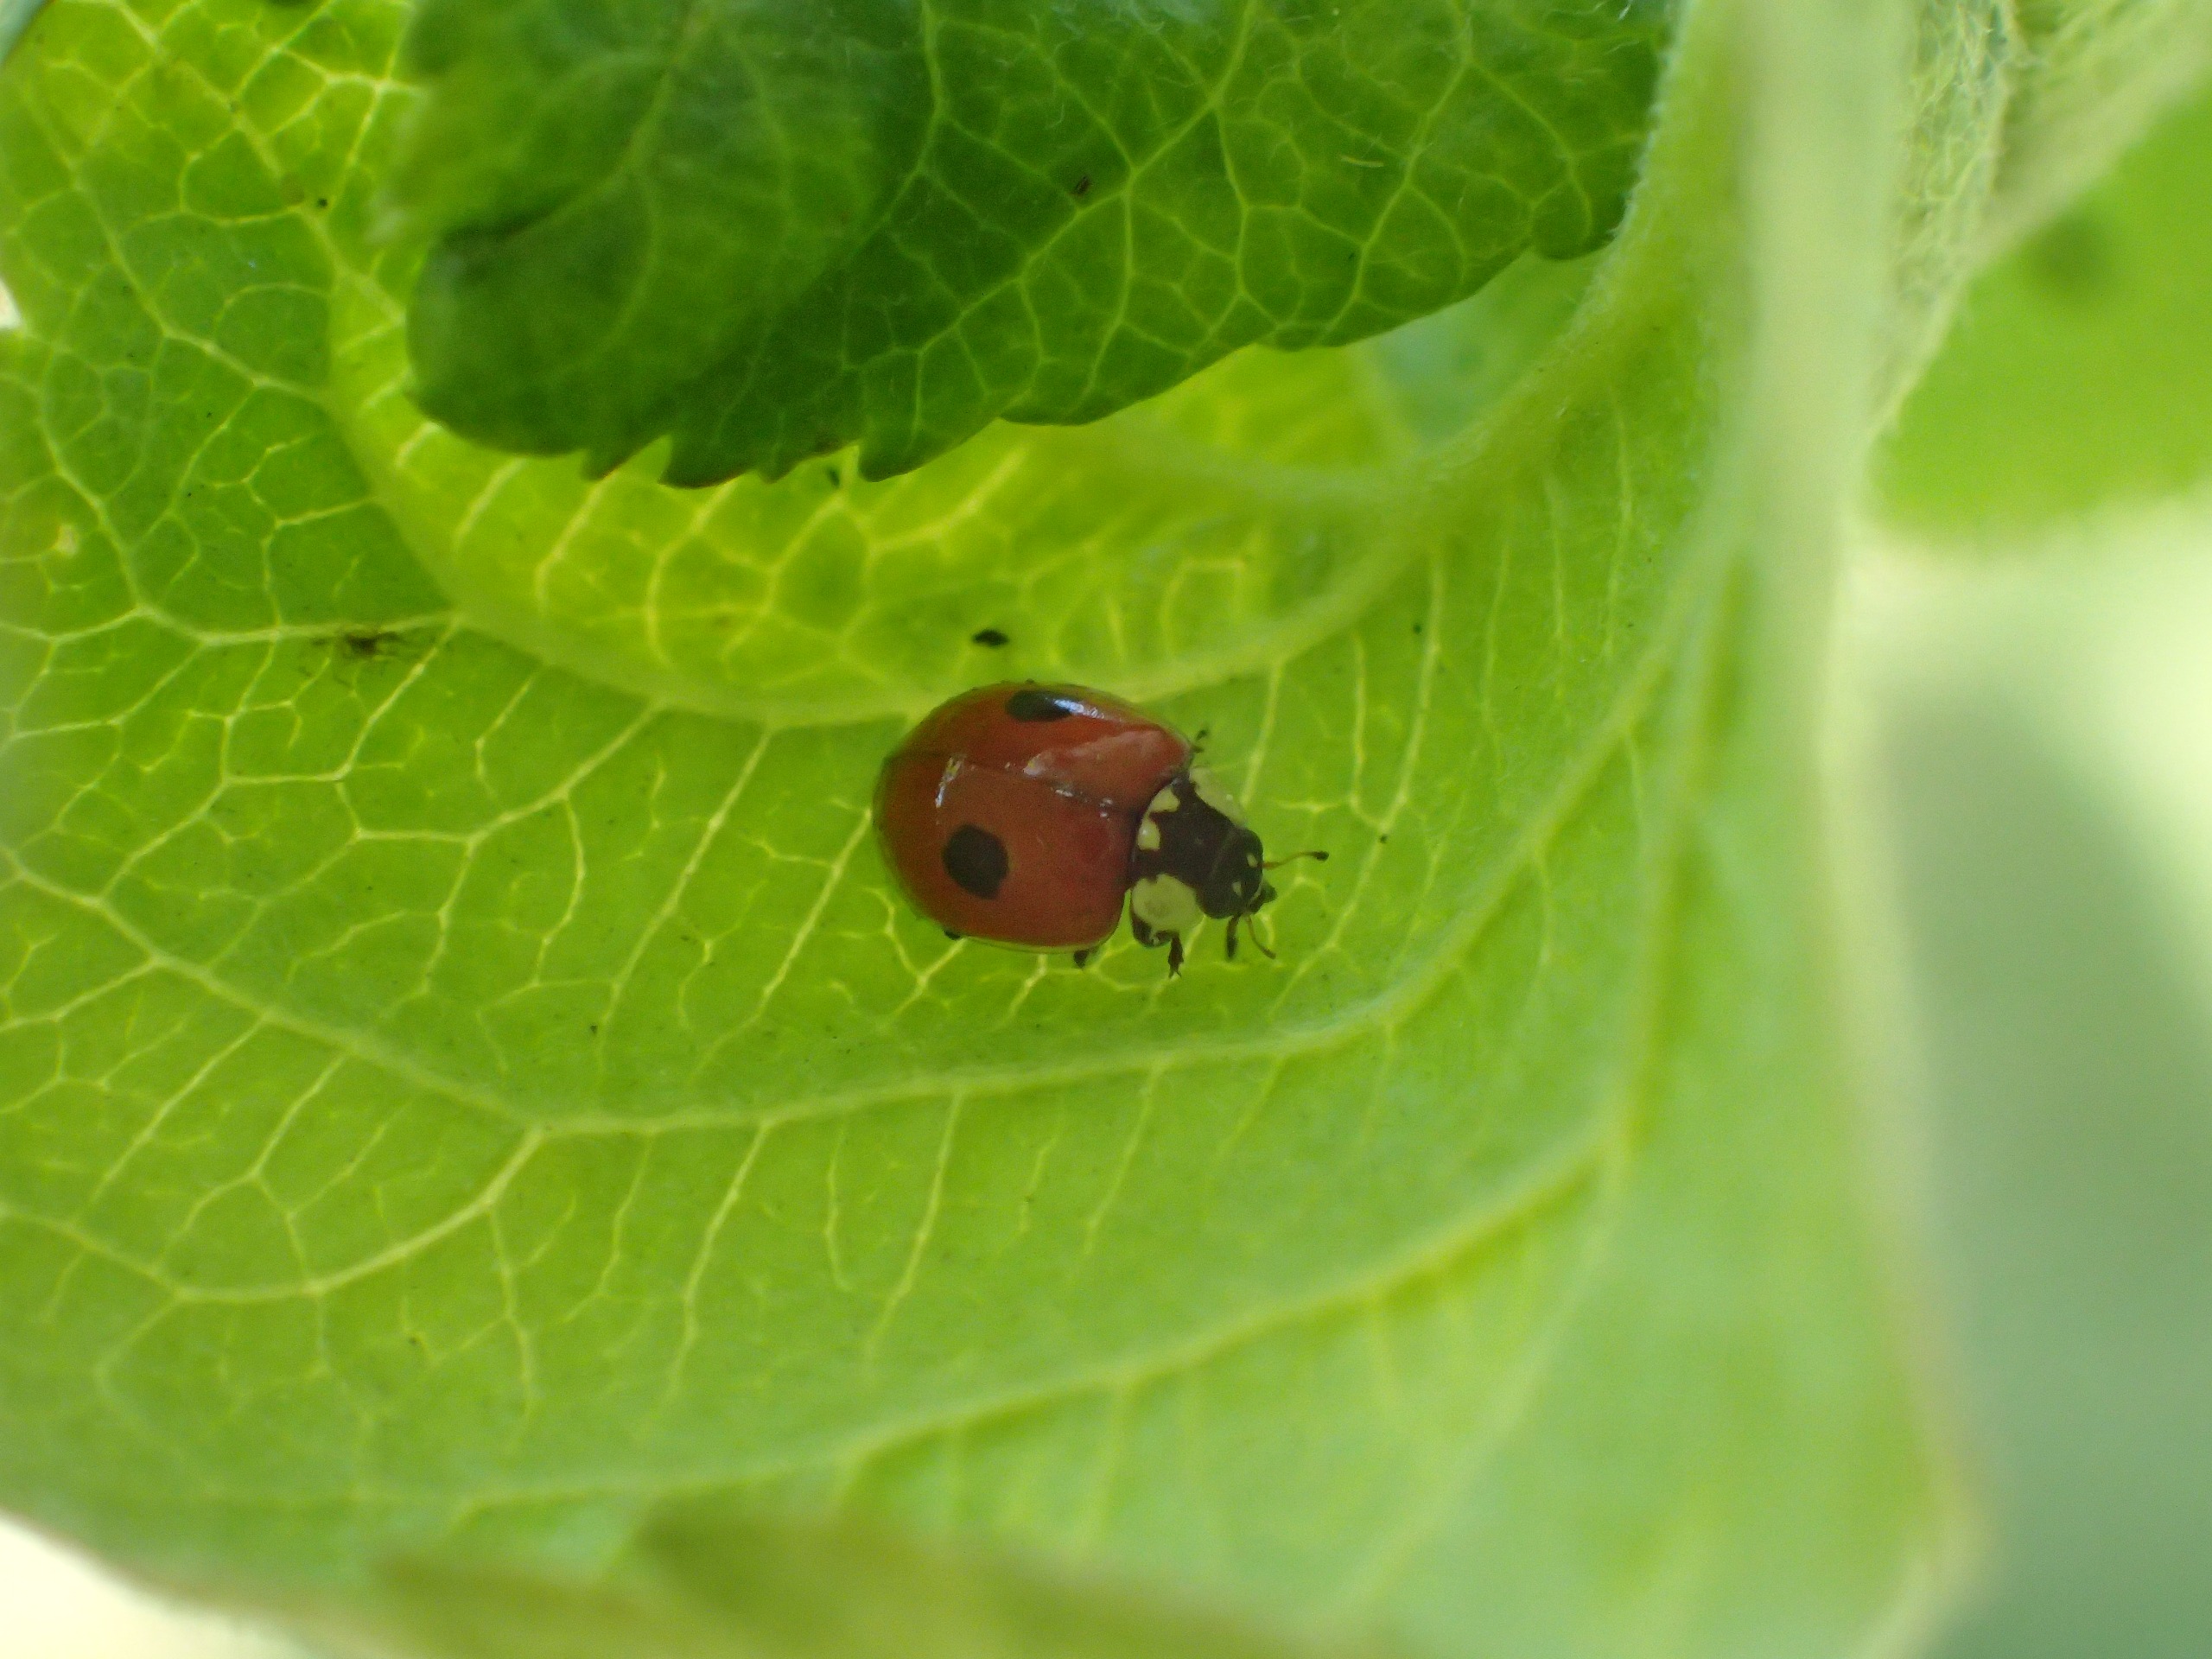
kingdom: Animalia
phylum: Arthropoda
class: Insecta
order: Coleoptera
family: Coccinellidae
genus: Adalia
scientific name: Adalia bipunctata
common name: Toplettet mariehøne
